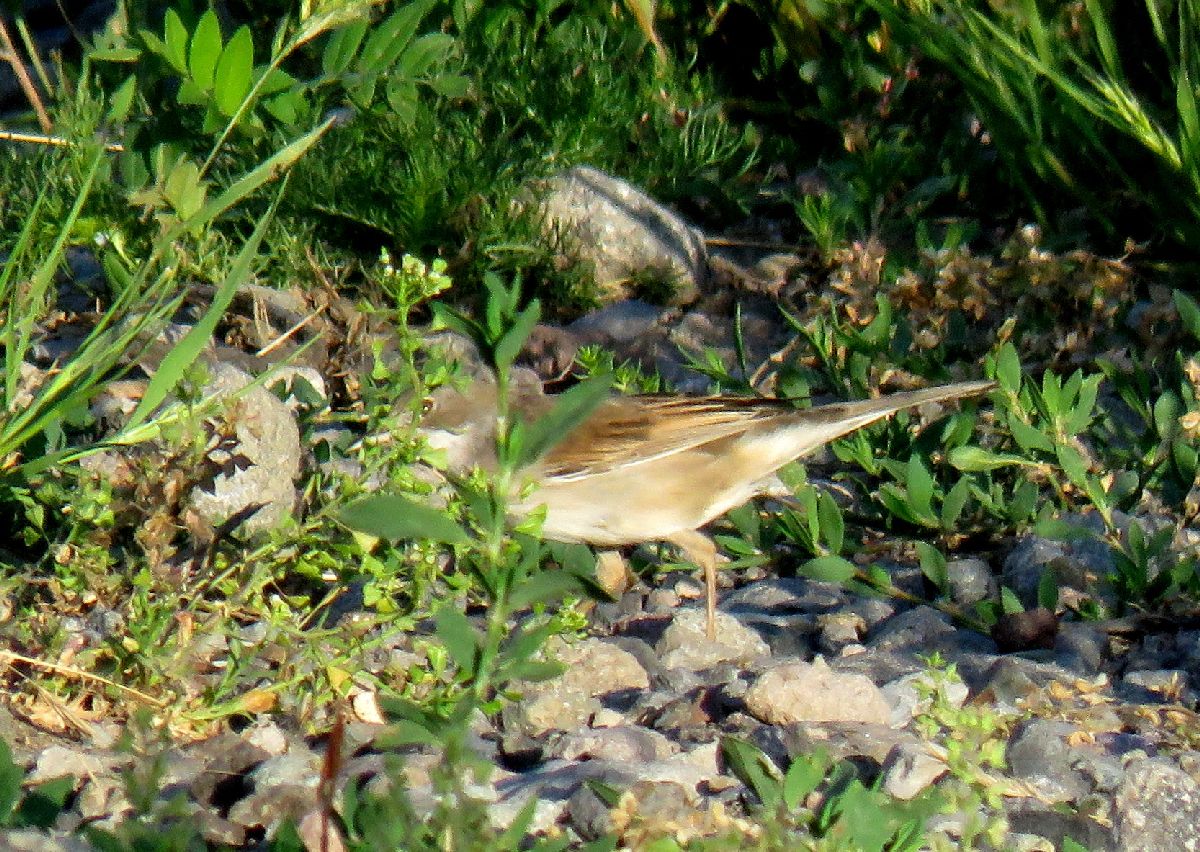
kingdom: Animalia
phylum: Chordata
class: Aves
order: Passeriformes
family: Sylviidae
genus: Sylvia
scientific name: Sylvia communis
